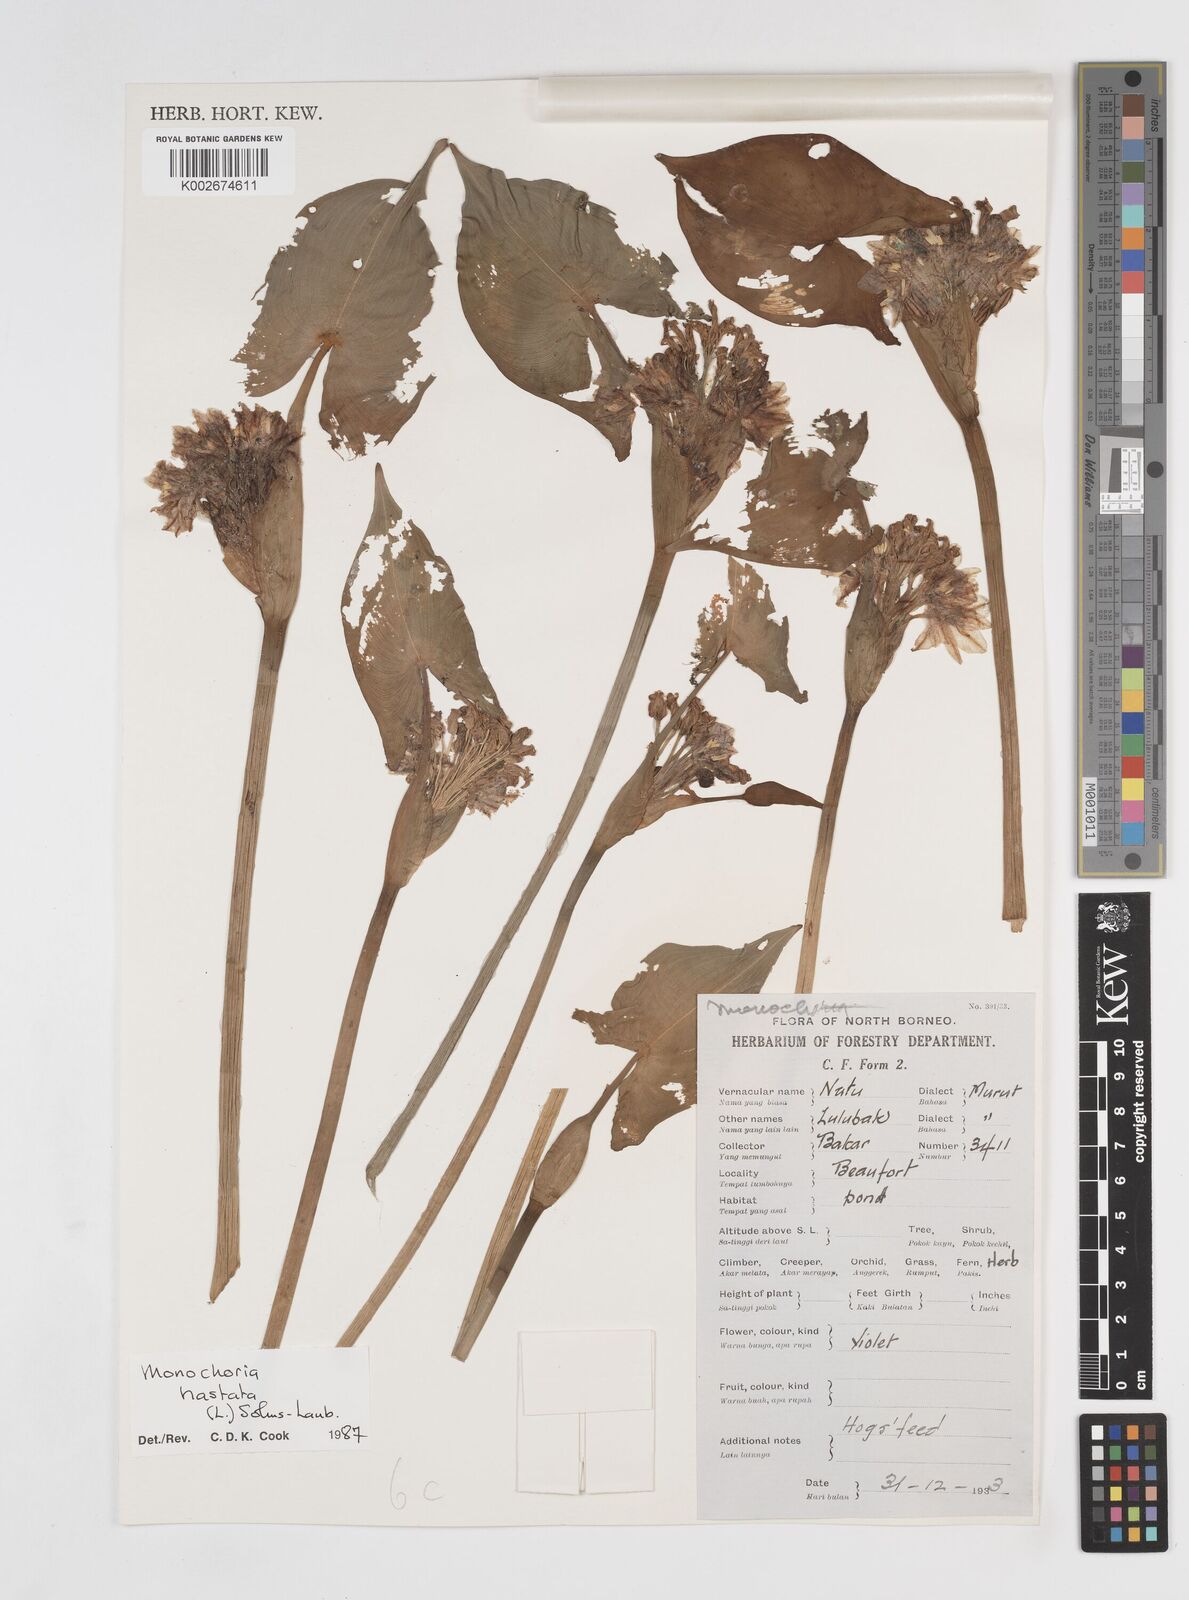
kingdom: Plantae
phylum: Tracheophyta
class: Liliopsida
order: Commelinales
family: Pontederiaceae
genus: Pontederia
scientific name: Pontederia hastata
